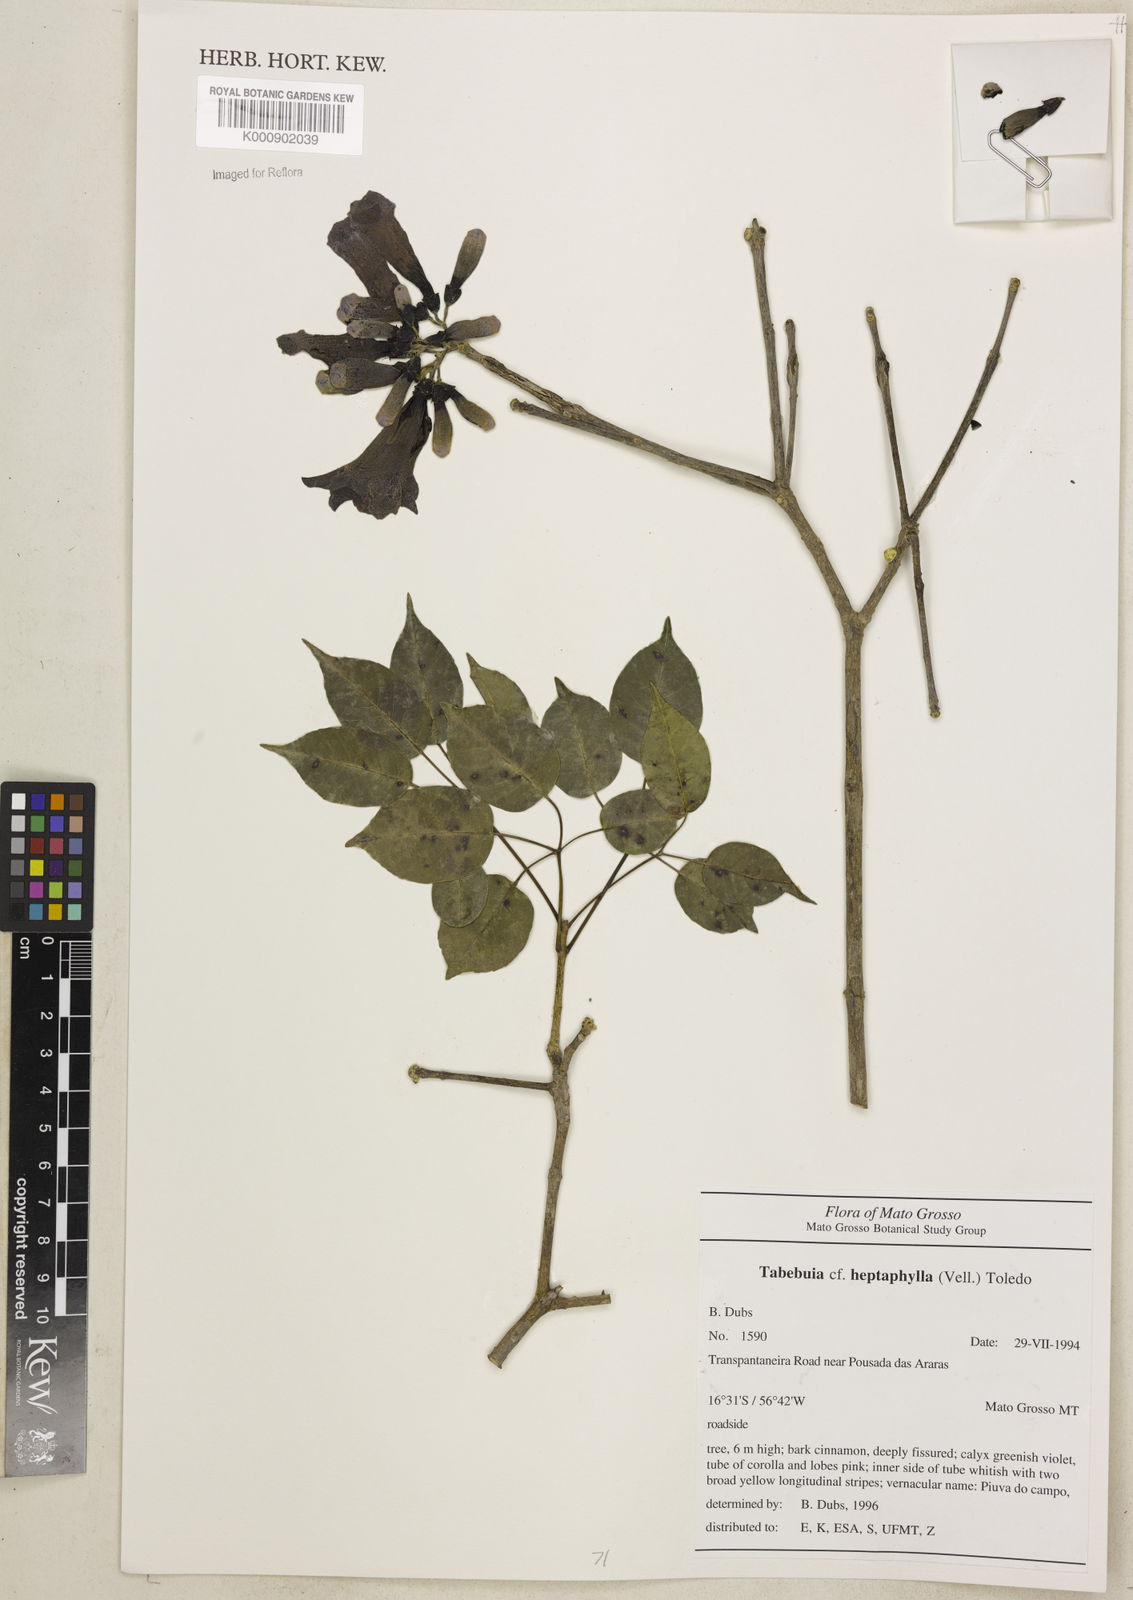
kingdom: Plantae
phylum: Tracheophyta
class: Magnoliopsida
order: Lamiales
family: Bignoniaceae
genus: Handroanthus
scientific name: Handroanthus heptaphyllus
